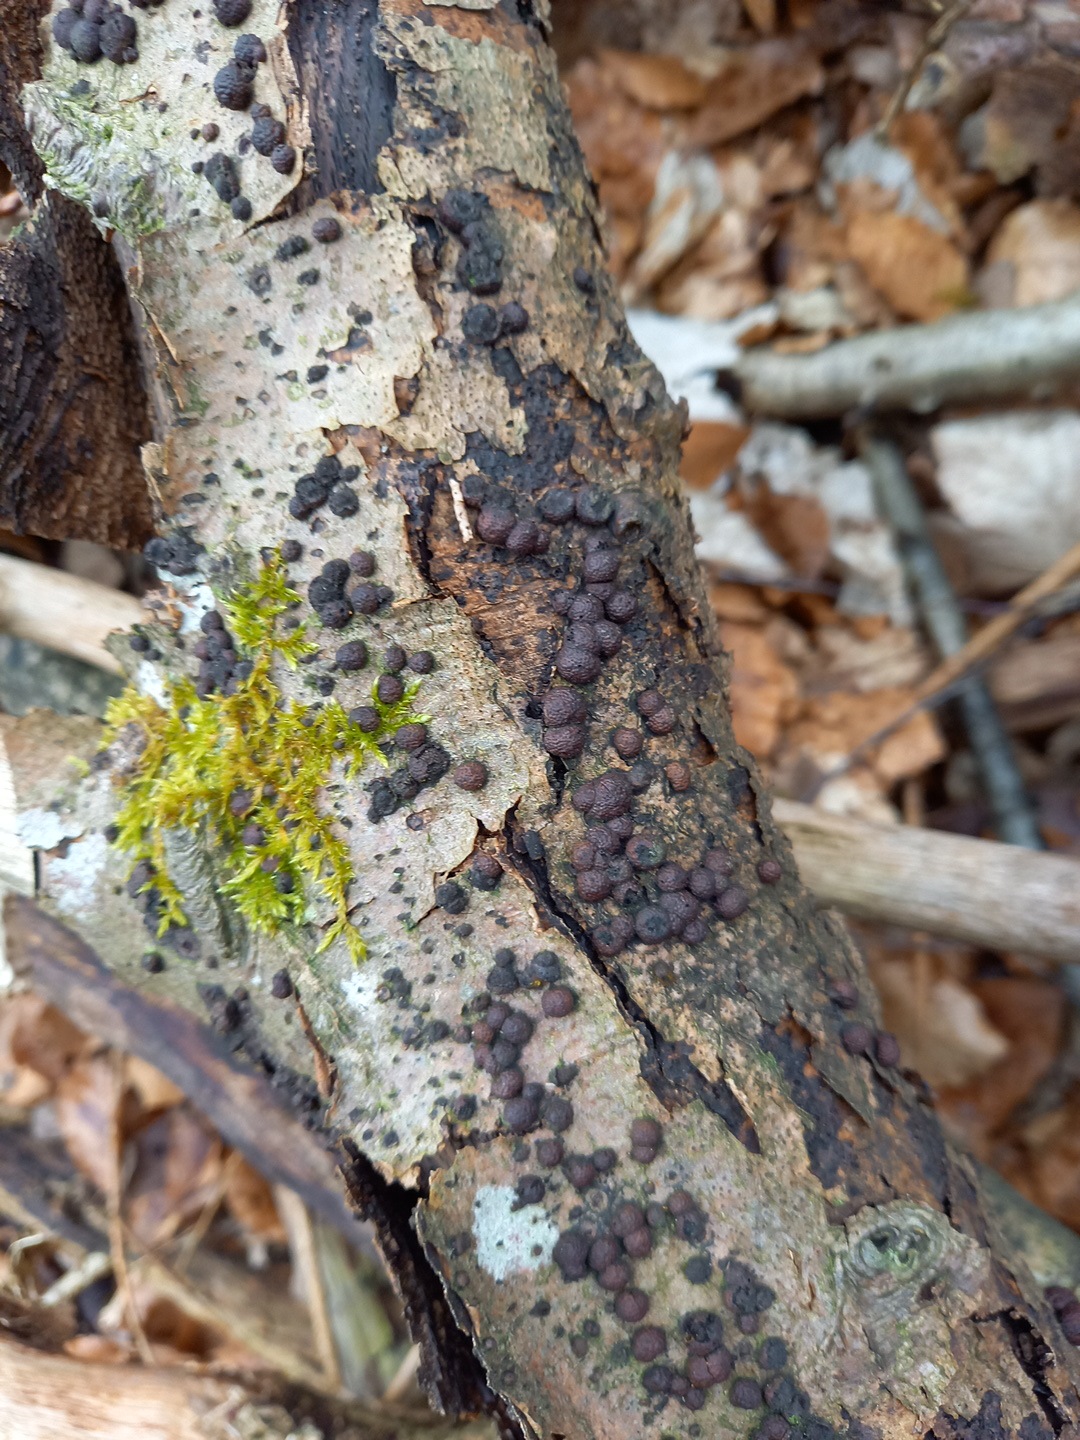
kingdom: Fungi
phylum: Ascomycota
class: Sordariomycetes
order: Xylariales
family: Hypoxylaceae
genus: Hypoxylon
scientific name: Hypoxylon fragiforme
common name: kuljordbær
